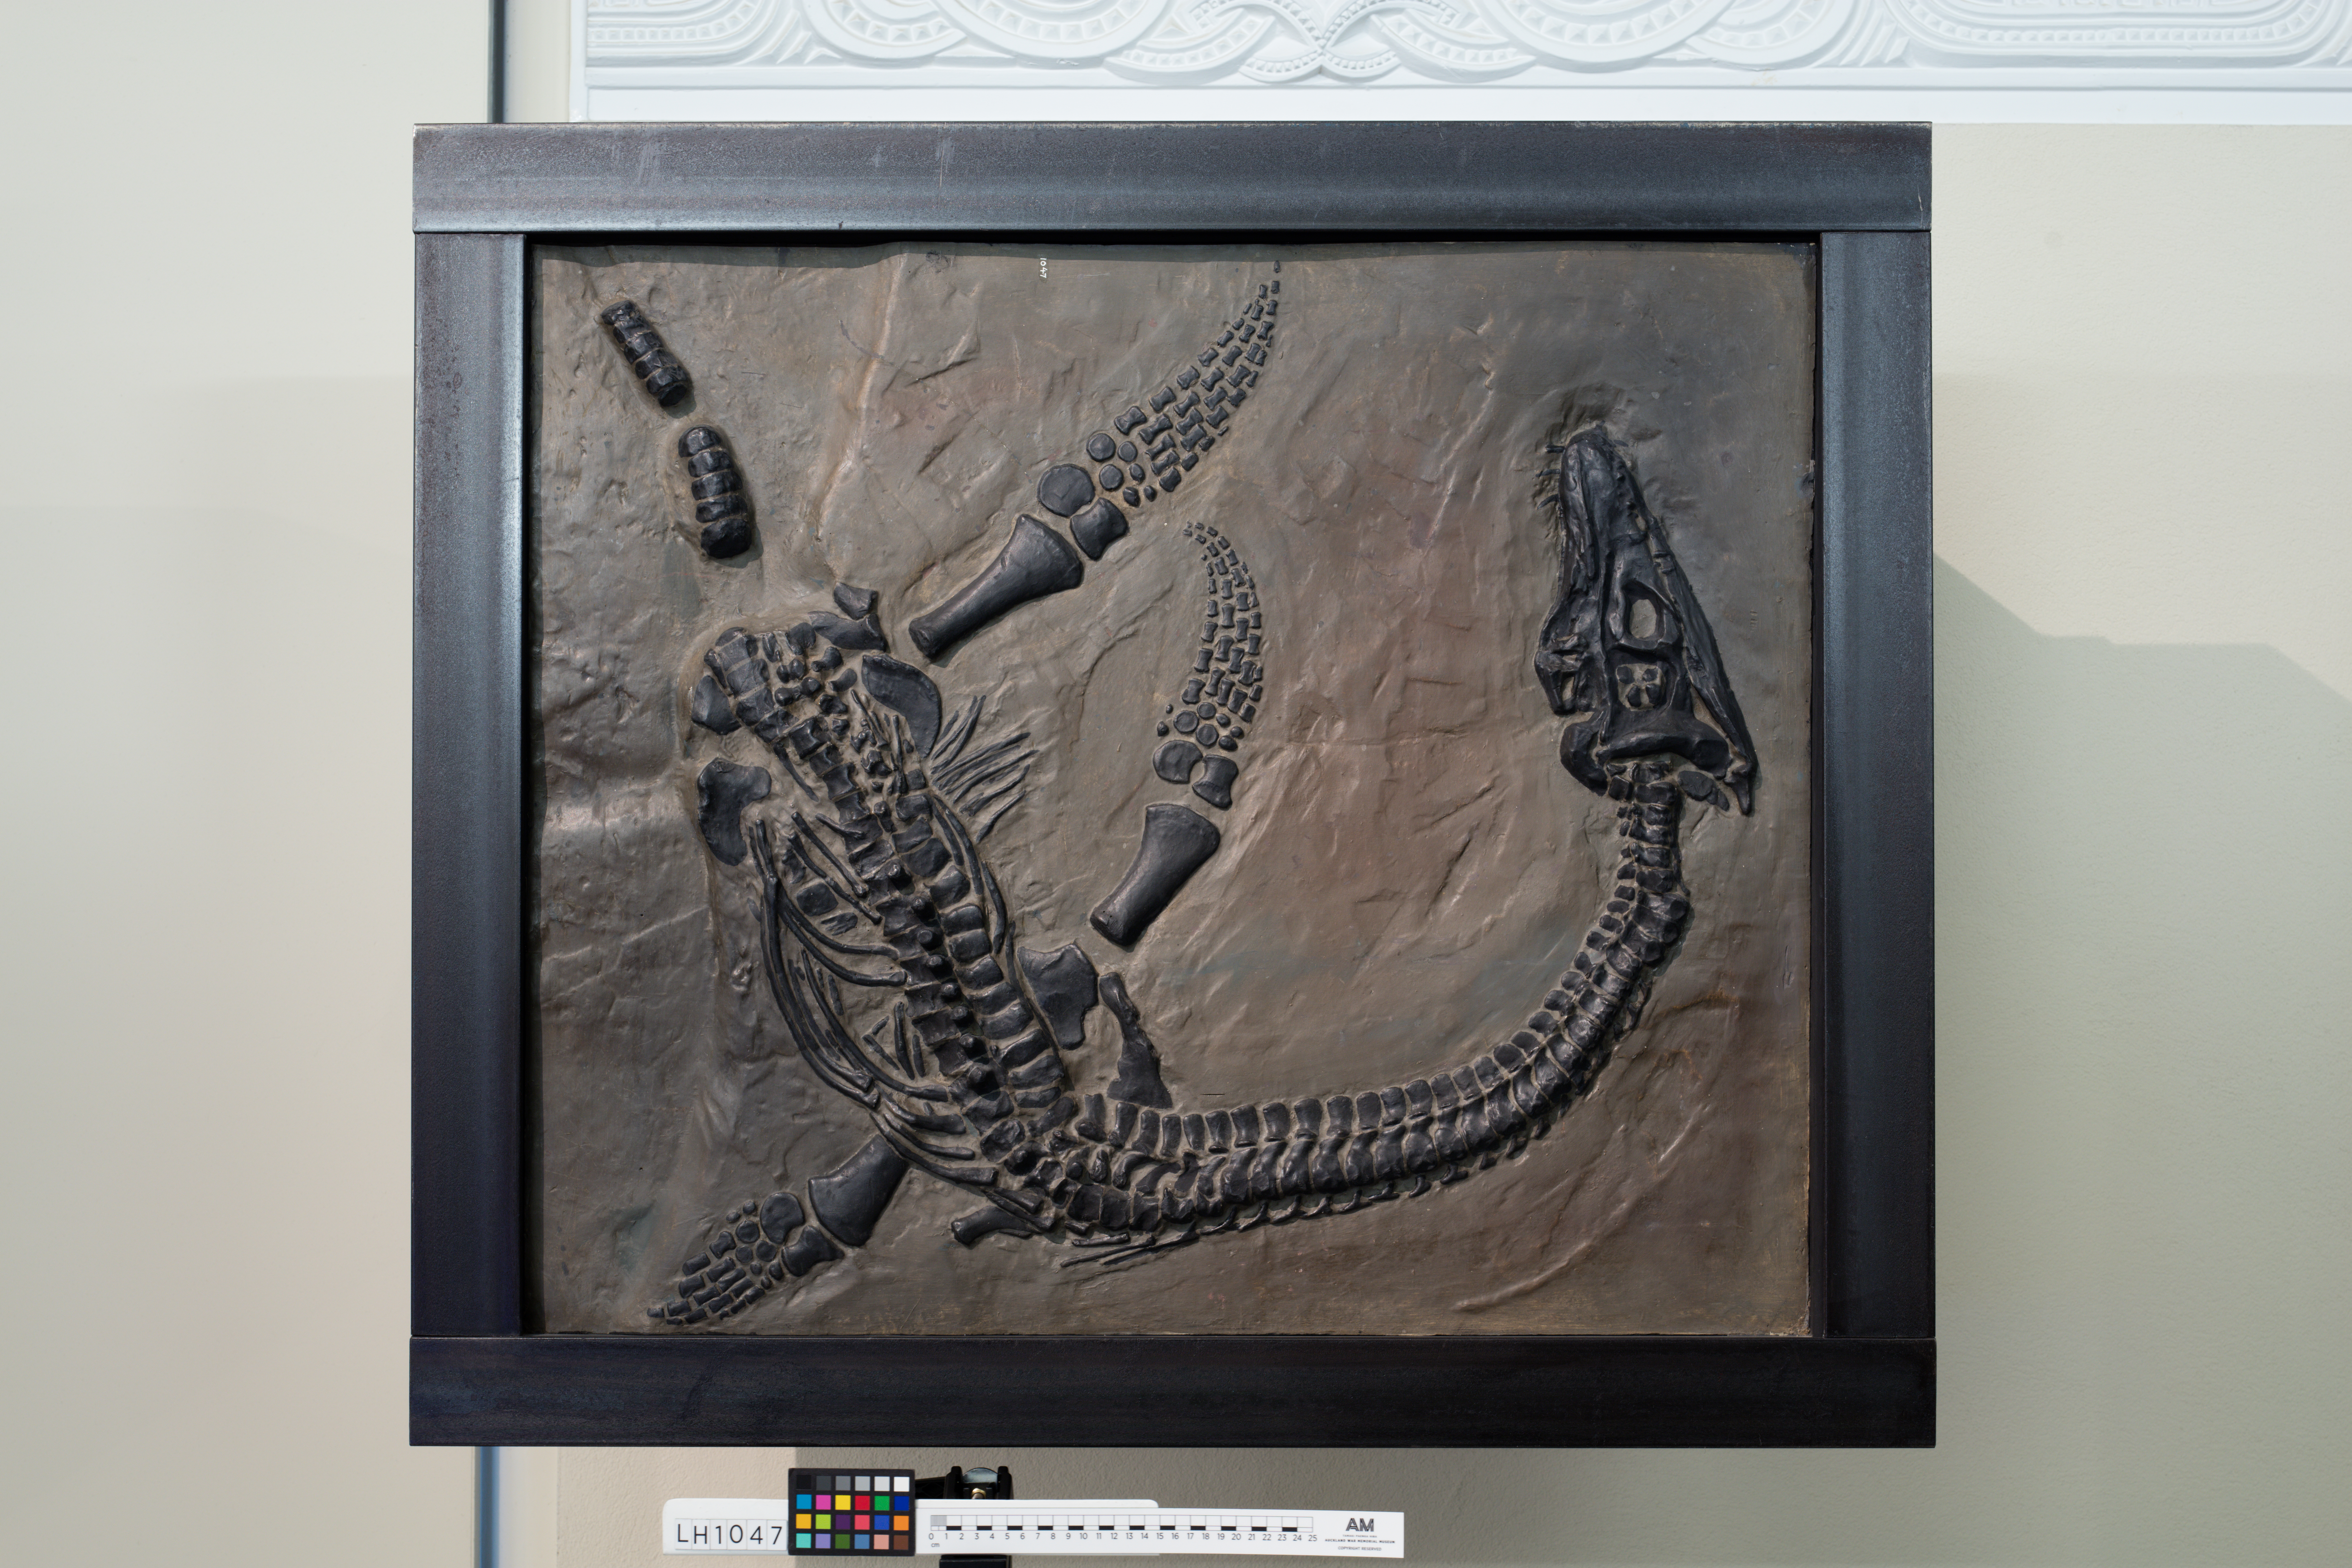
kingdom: Animalia
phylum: Chordata
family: Plesiosauridae
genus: Plesiosaurus
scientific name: Plesiosaurus macrocephalus
